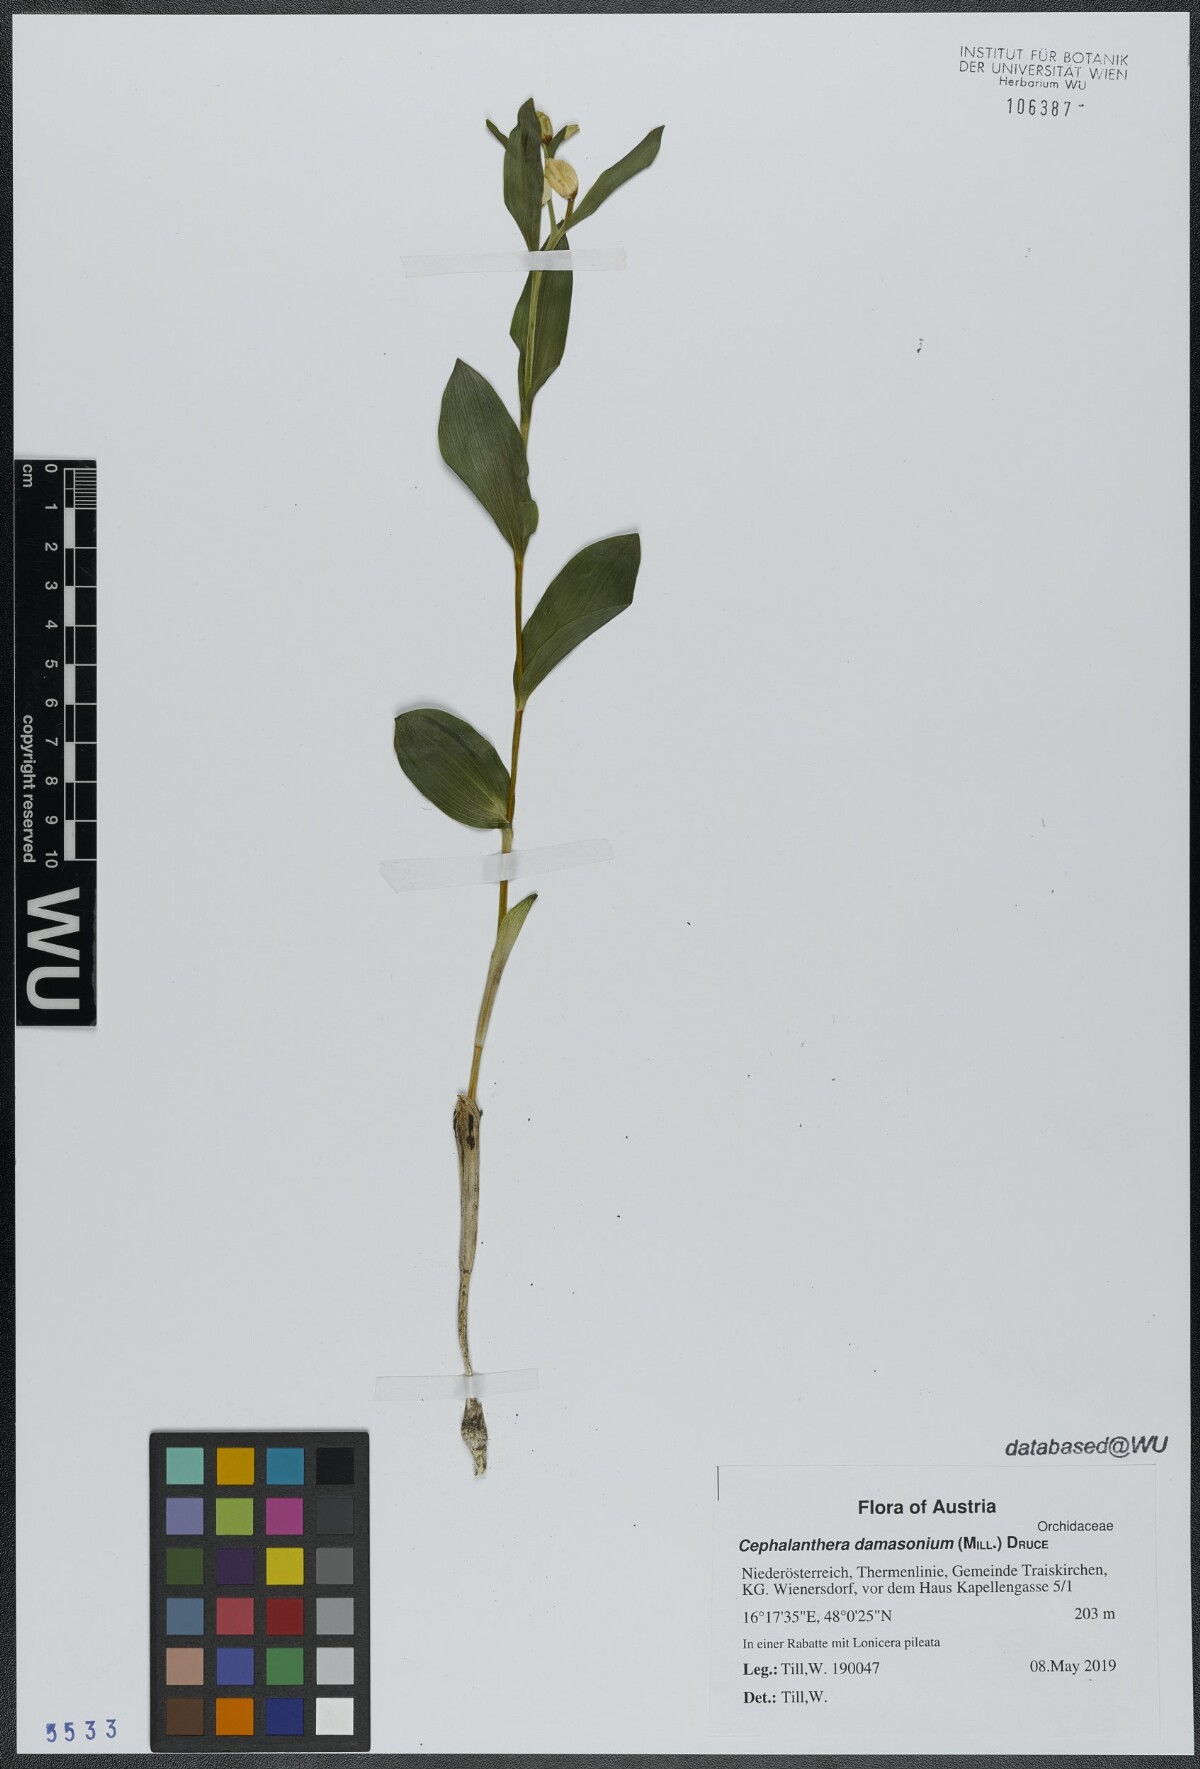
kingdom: Plantae
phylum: Tracheophyta
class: Liliopsida
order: Asparagales
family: Orchidaceae
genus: Cephalanthera
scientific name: Cephalanthera damasonium
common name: White helleborine
